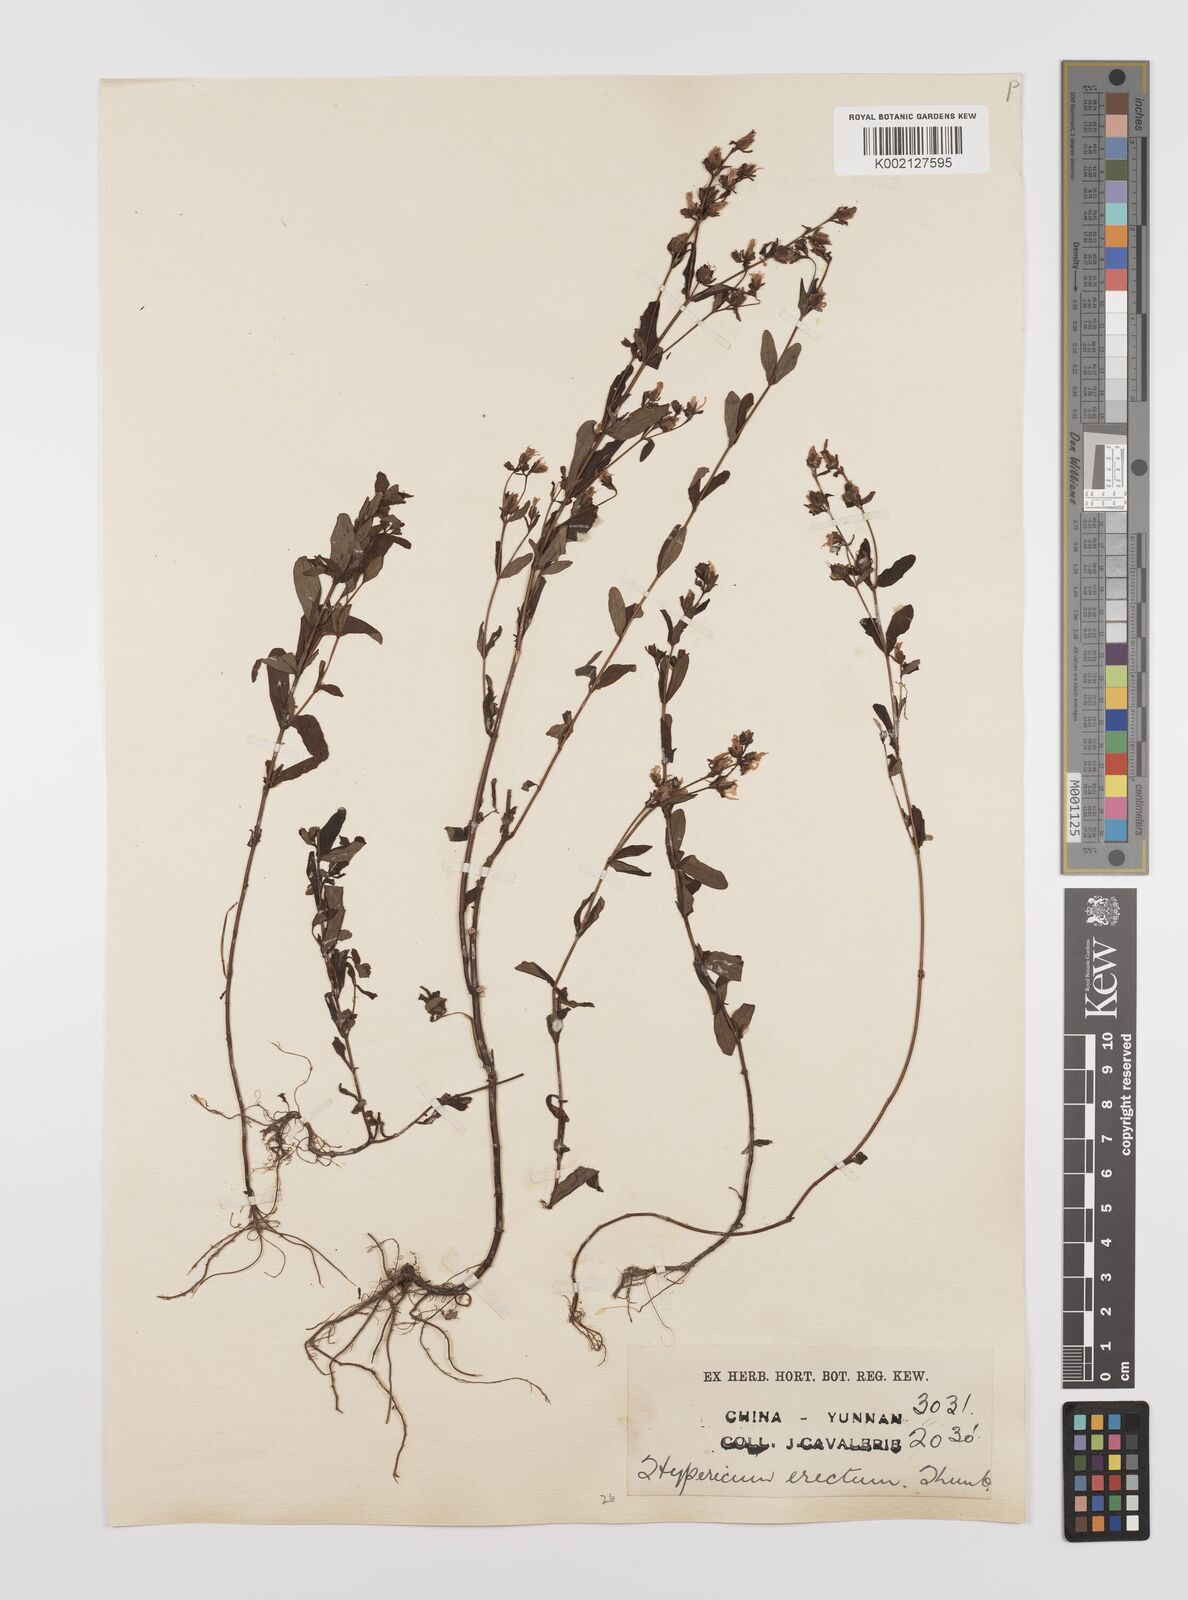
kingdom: Plantae
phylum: Tracheophyta
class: Magnoliopsida
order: Malpighiales
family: Hypericaceae
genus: Hypericum
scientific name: Hypericum petiolulatum
